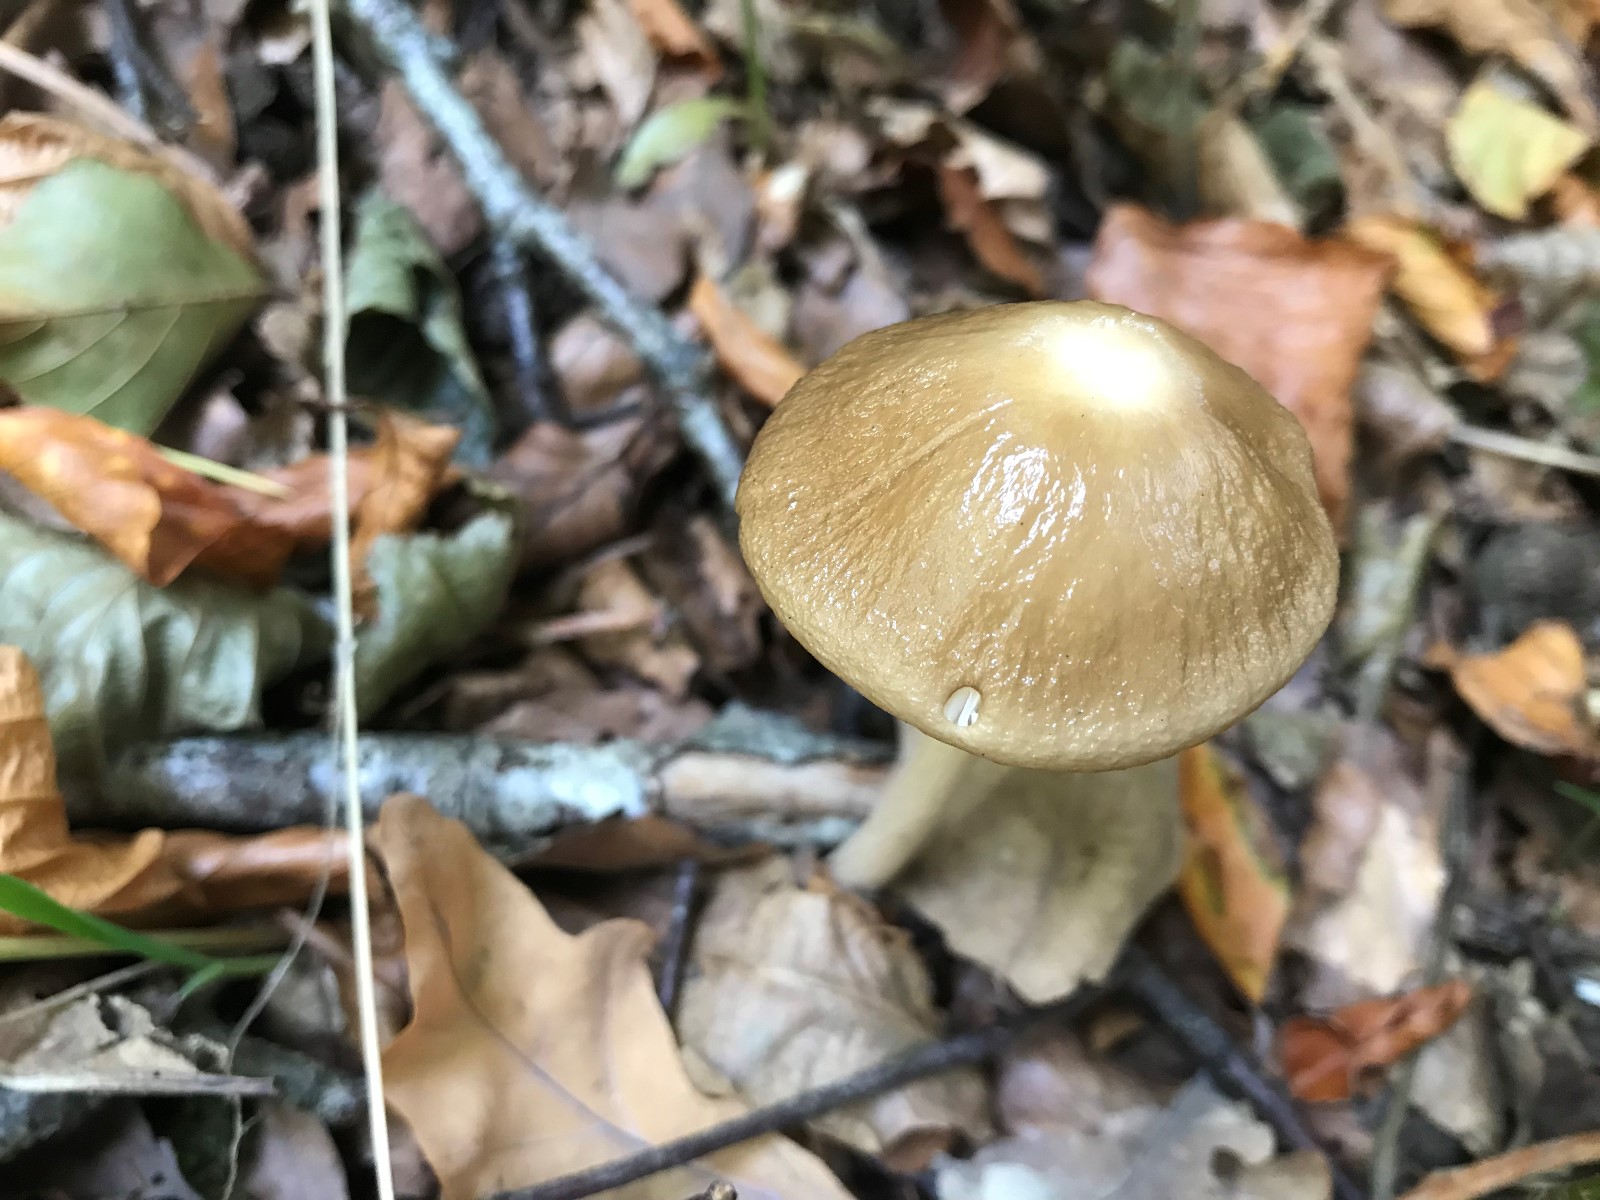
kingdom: Fungi
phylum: Basidiomycota
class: Agaricomycetes
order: Agaricales
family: Physalacriaceae
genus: Hymenopellis
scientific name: Hymenopellis radicata
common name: almindelig pælerodshat
